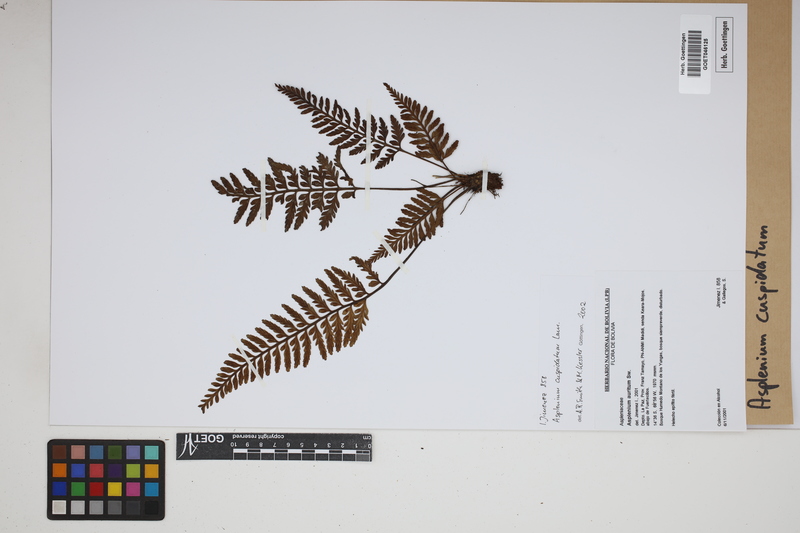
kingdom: Plantae
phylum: Tracheophyta
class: Polypodiopsida
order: Polypodiales
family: Aspleniaceae
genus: Asplenium
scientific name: Asplenium cuspidatum
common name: Eared spleenwort
